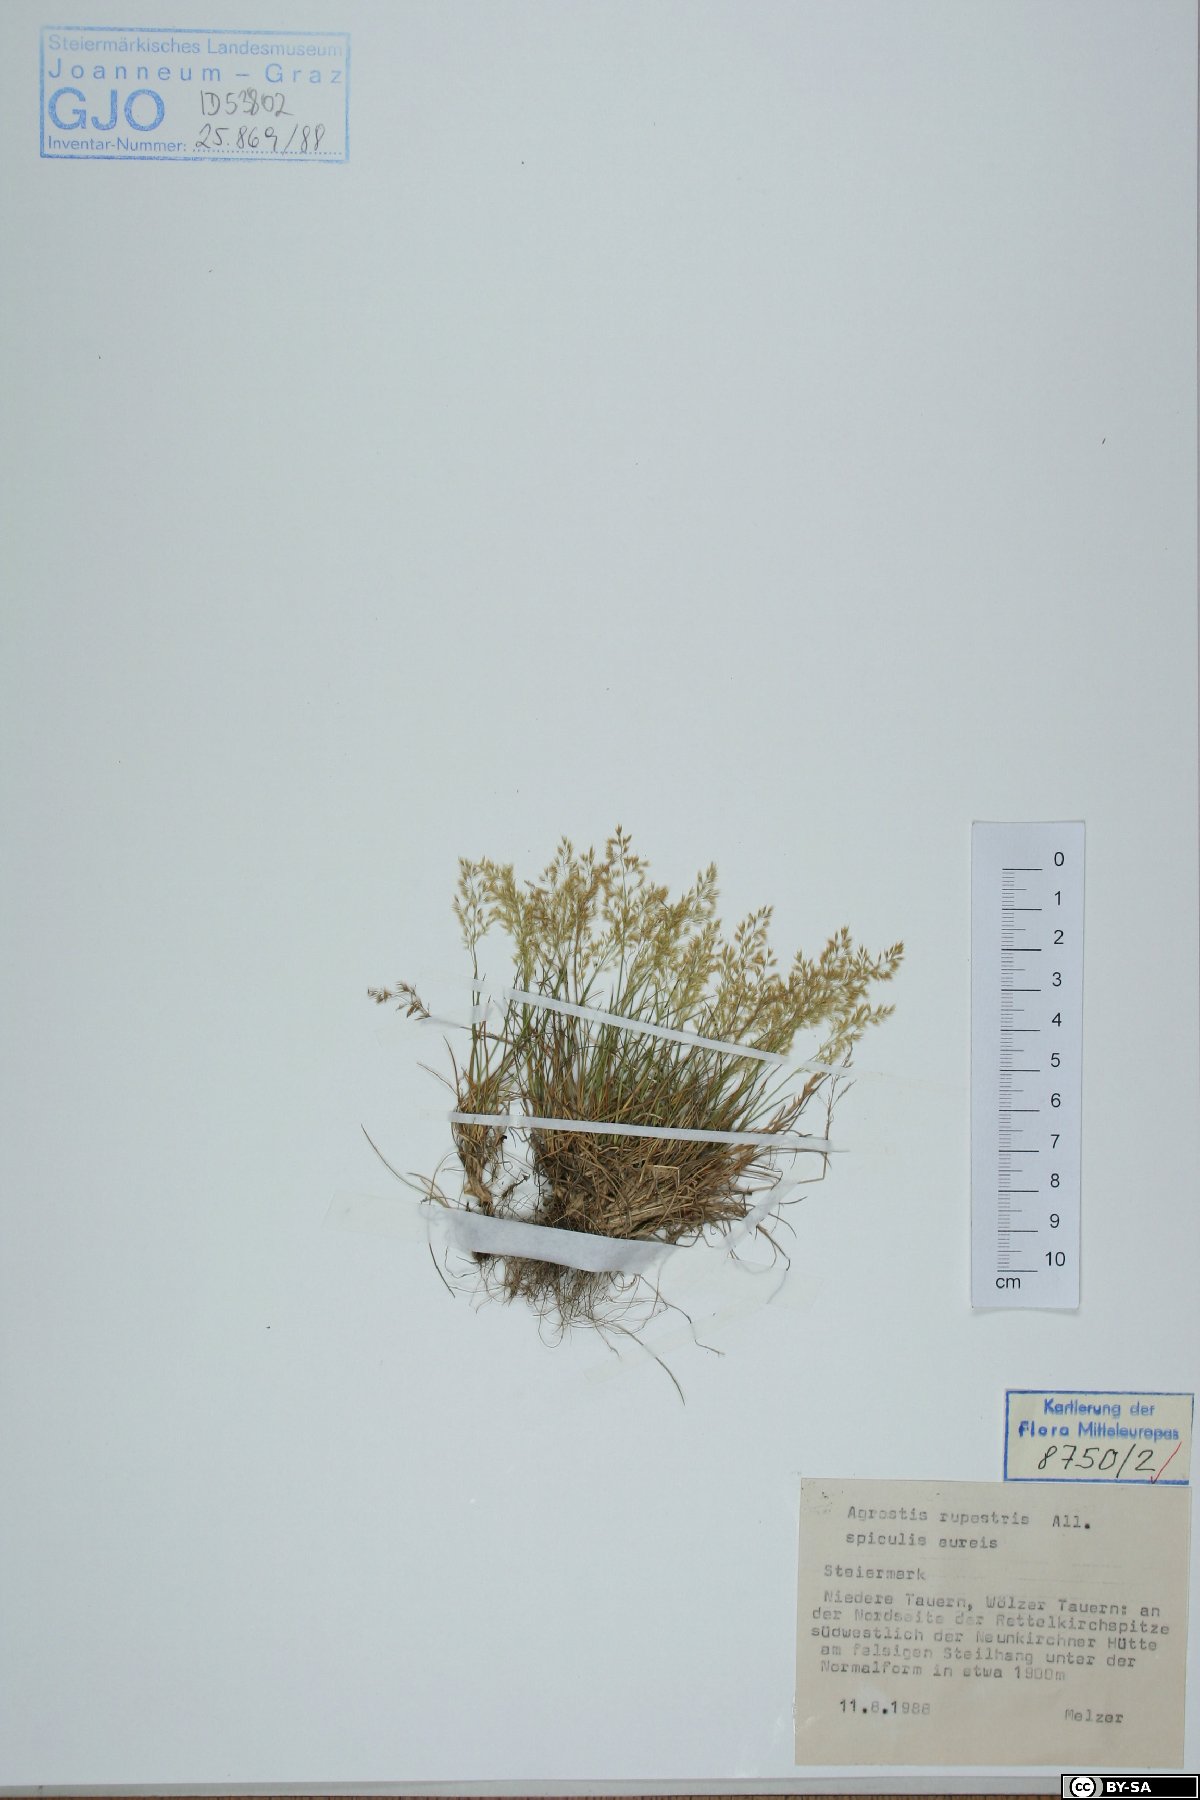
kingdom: Plantae
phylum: Tracheophyta
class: Liliopsida
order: Poales
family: Poaceae
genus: Agrostis
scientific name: Agrostis rupestris
